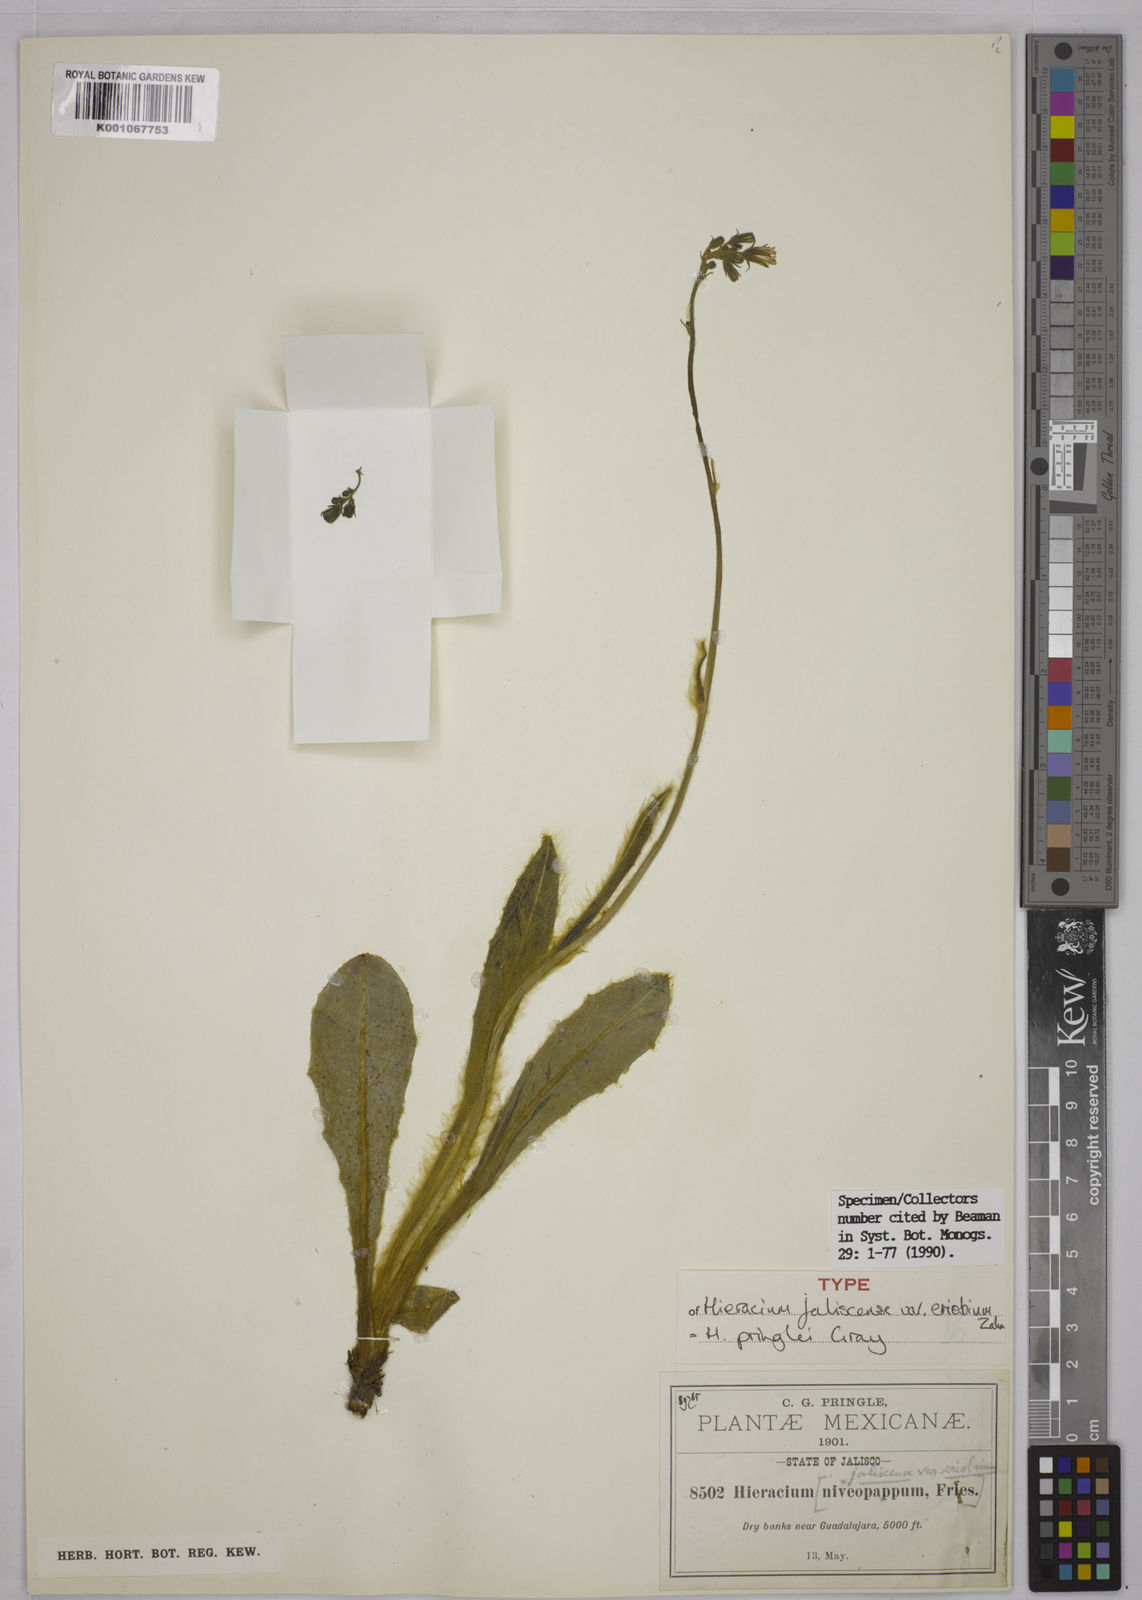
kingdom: Plantae
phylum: Tracheophyta
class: Magnoliopsida
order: Asterales
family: Asteraceae
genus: Hieracium
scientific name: Hieracium pringlei
